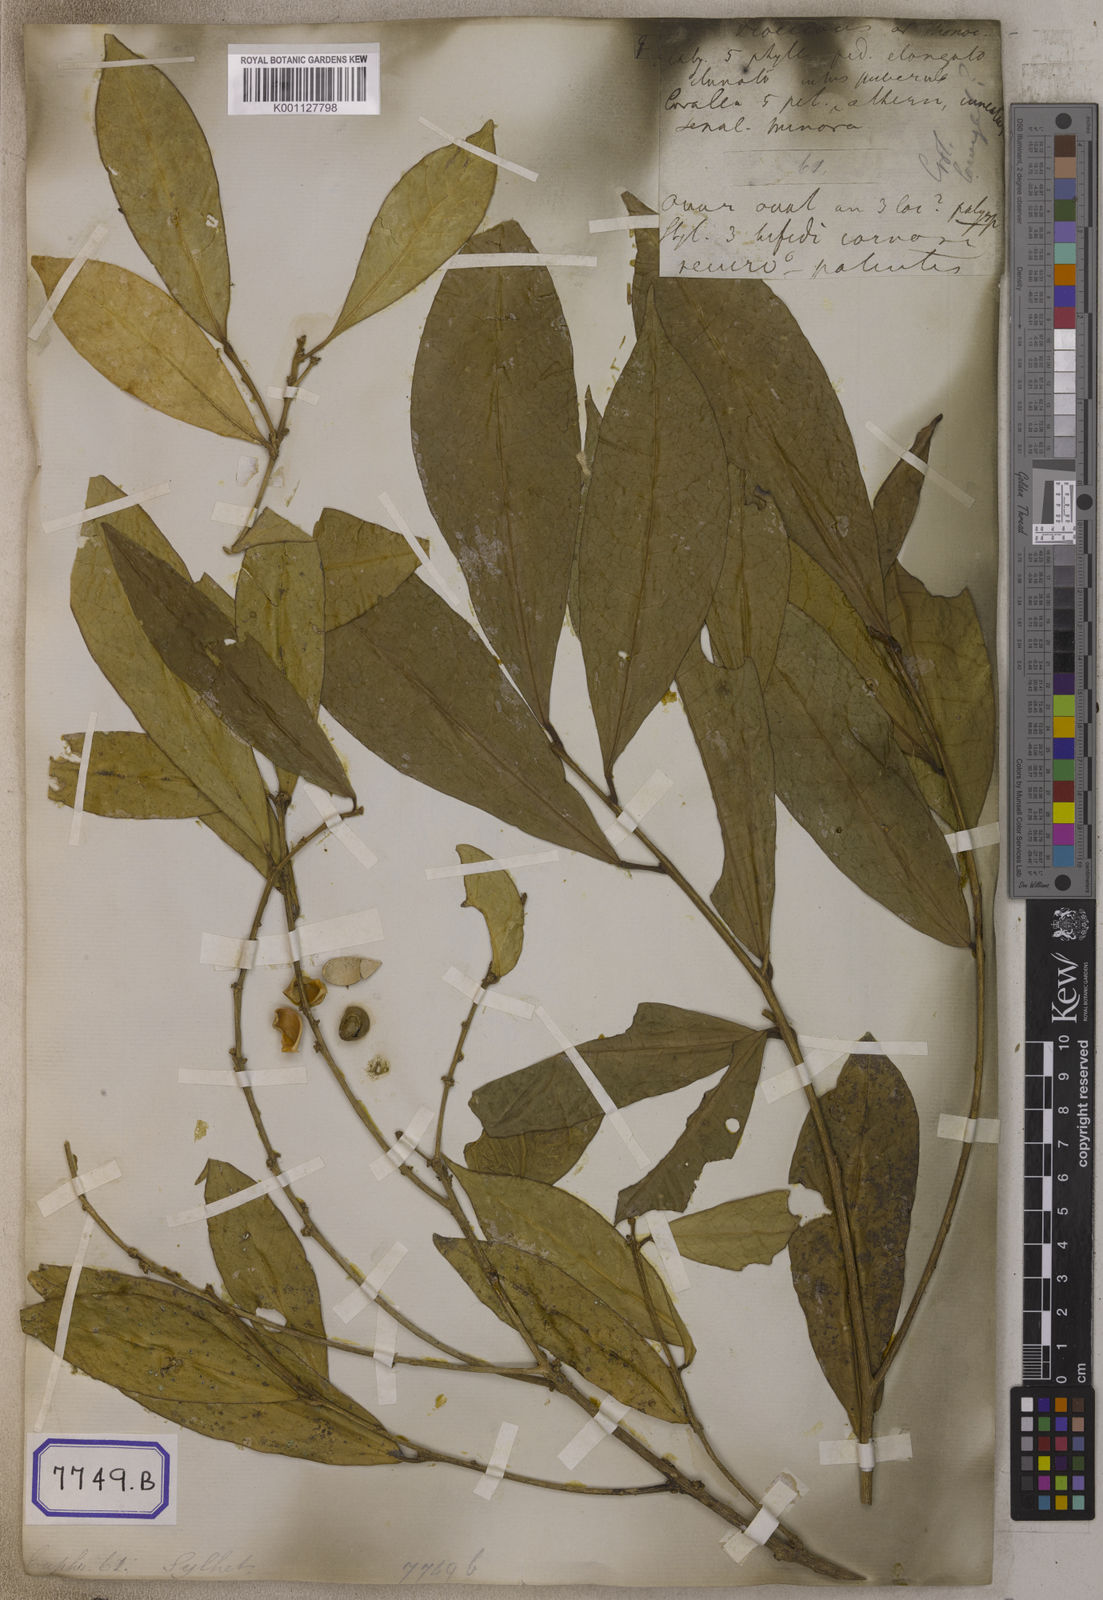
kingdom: Plantae
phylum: Tracheophyta
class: Magnoliopsida
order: Malpighiales
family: Euphorbiaceae
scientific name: Euphorbiaceae
